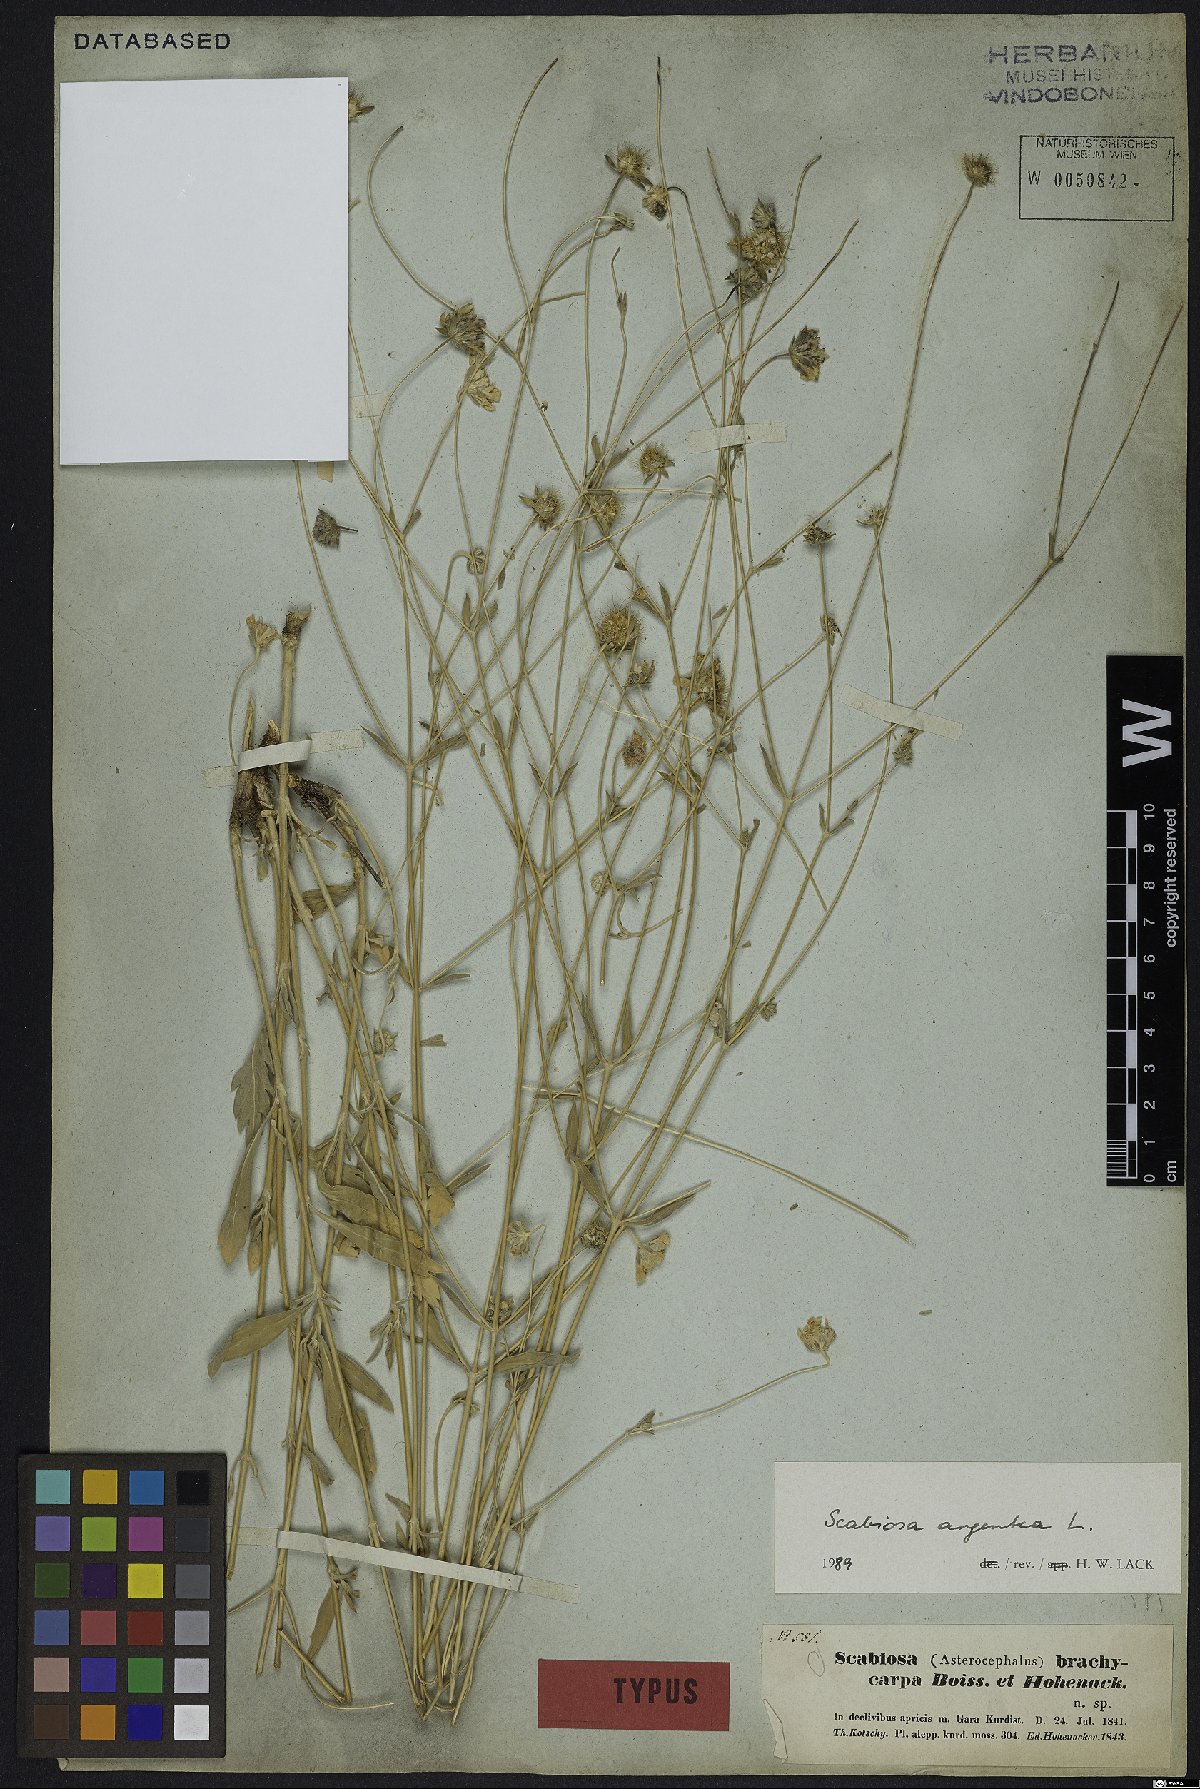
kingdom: Plantae
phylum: Tracheophyta
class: Magnoliopsida
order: Dipsacales
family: Caprifoliaceae
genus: Lomelosia
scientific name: Lomelosia argentea
